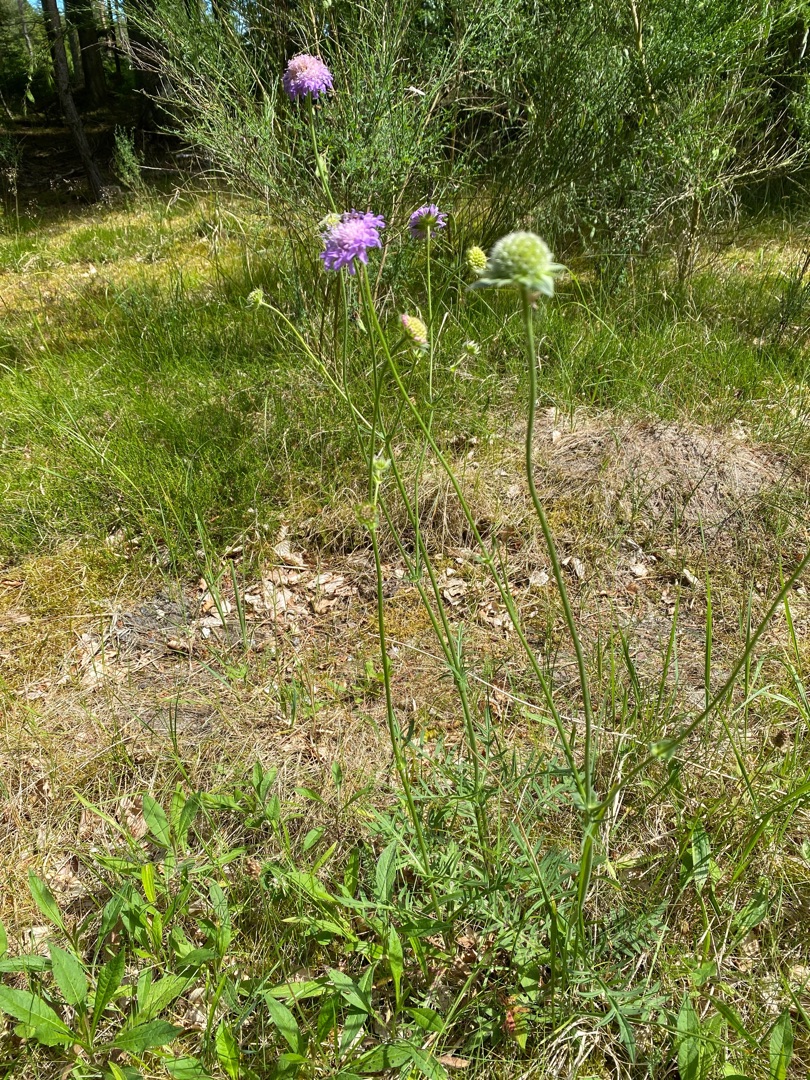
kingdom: Plantae
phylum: Tracheophyta
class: Magnoliopsida
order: Dipsacales
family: Caprifoliaceae
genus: Knautia
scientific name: Knautia arvensis
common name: Blåhat
